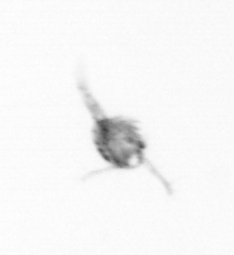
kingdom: Animalia
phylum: Arthropoda
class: Copepoda
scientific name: Copepoda
